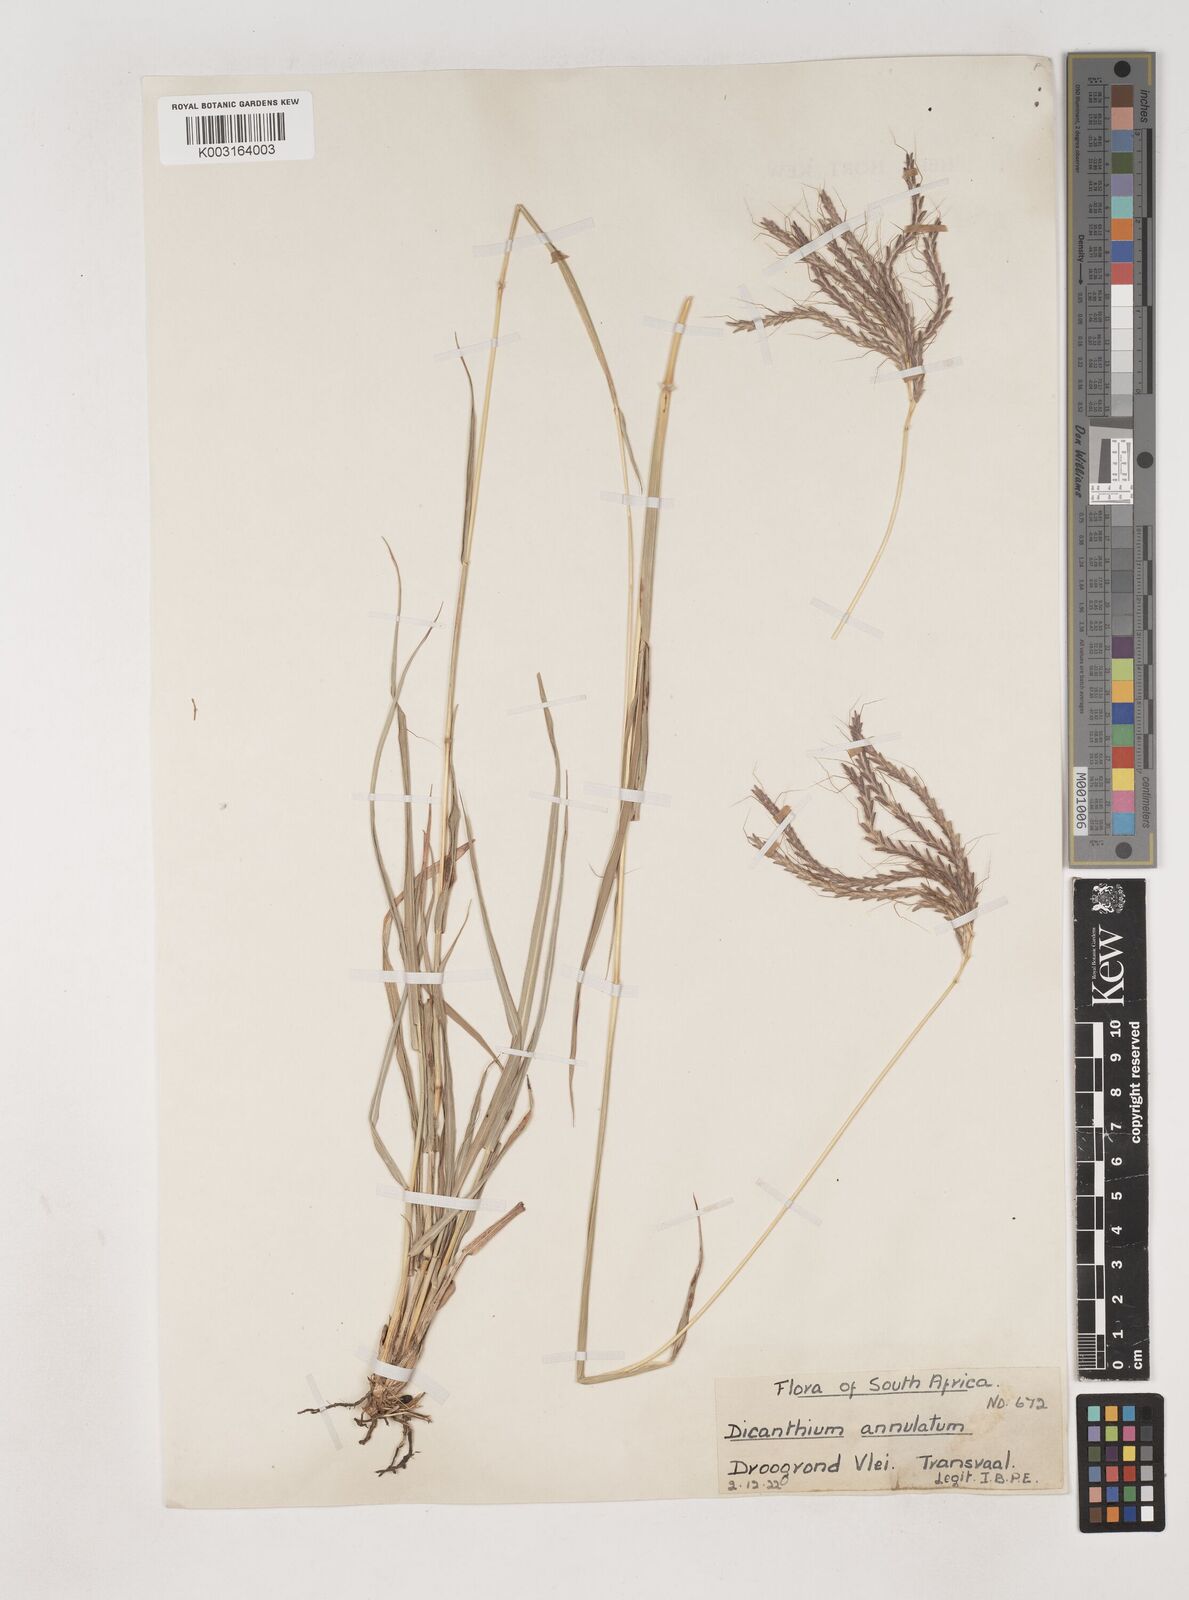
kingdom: Plantae
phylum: Tracheophyta
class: Liliopsida
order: Poales
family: Poaceae
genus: Dichanthium
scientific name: Dichanthium annulatum
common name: Kleberg's bluestem
